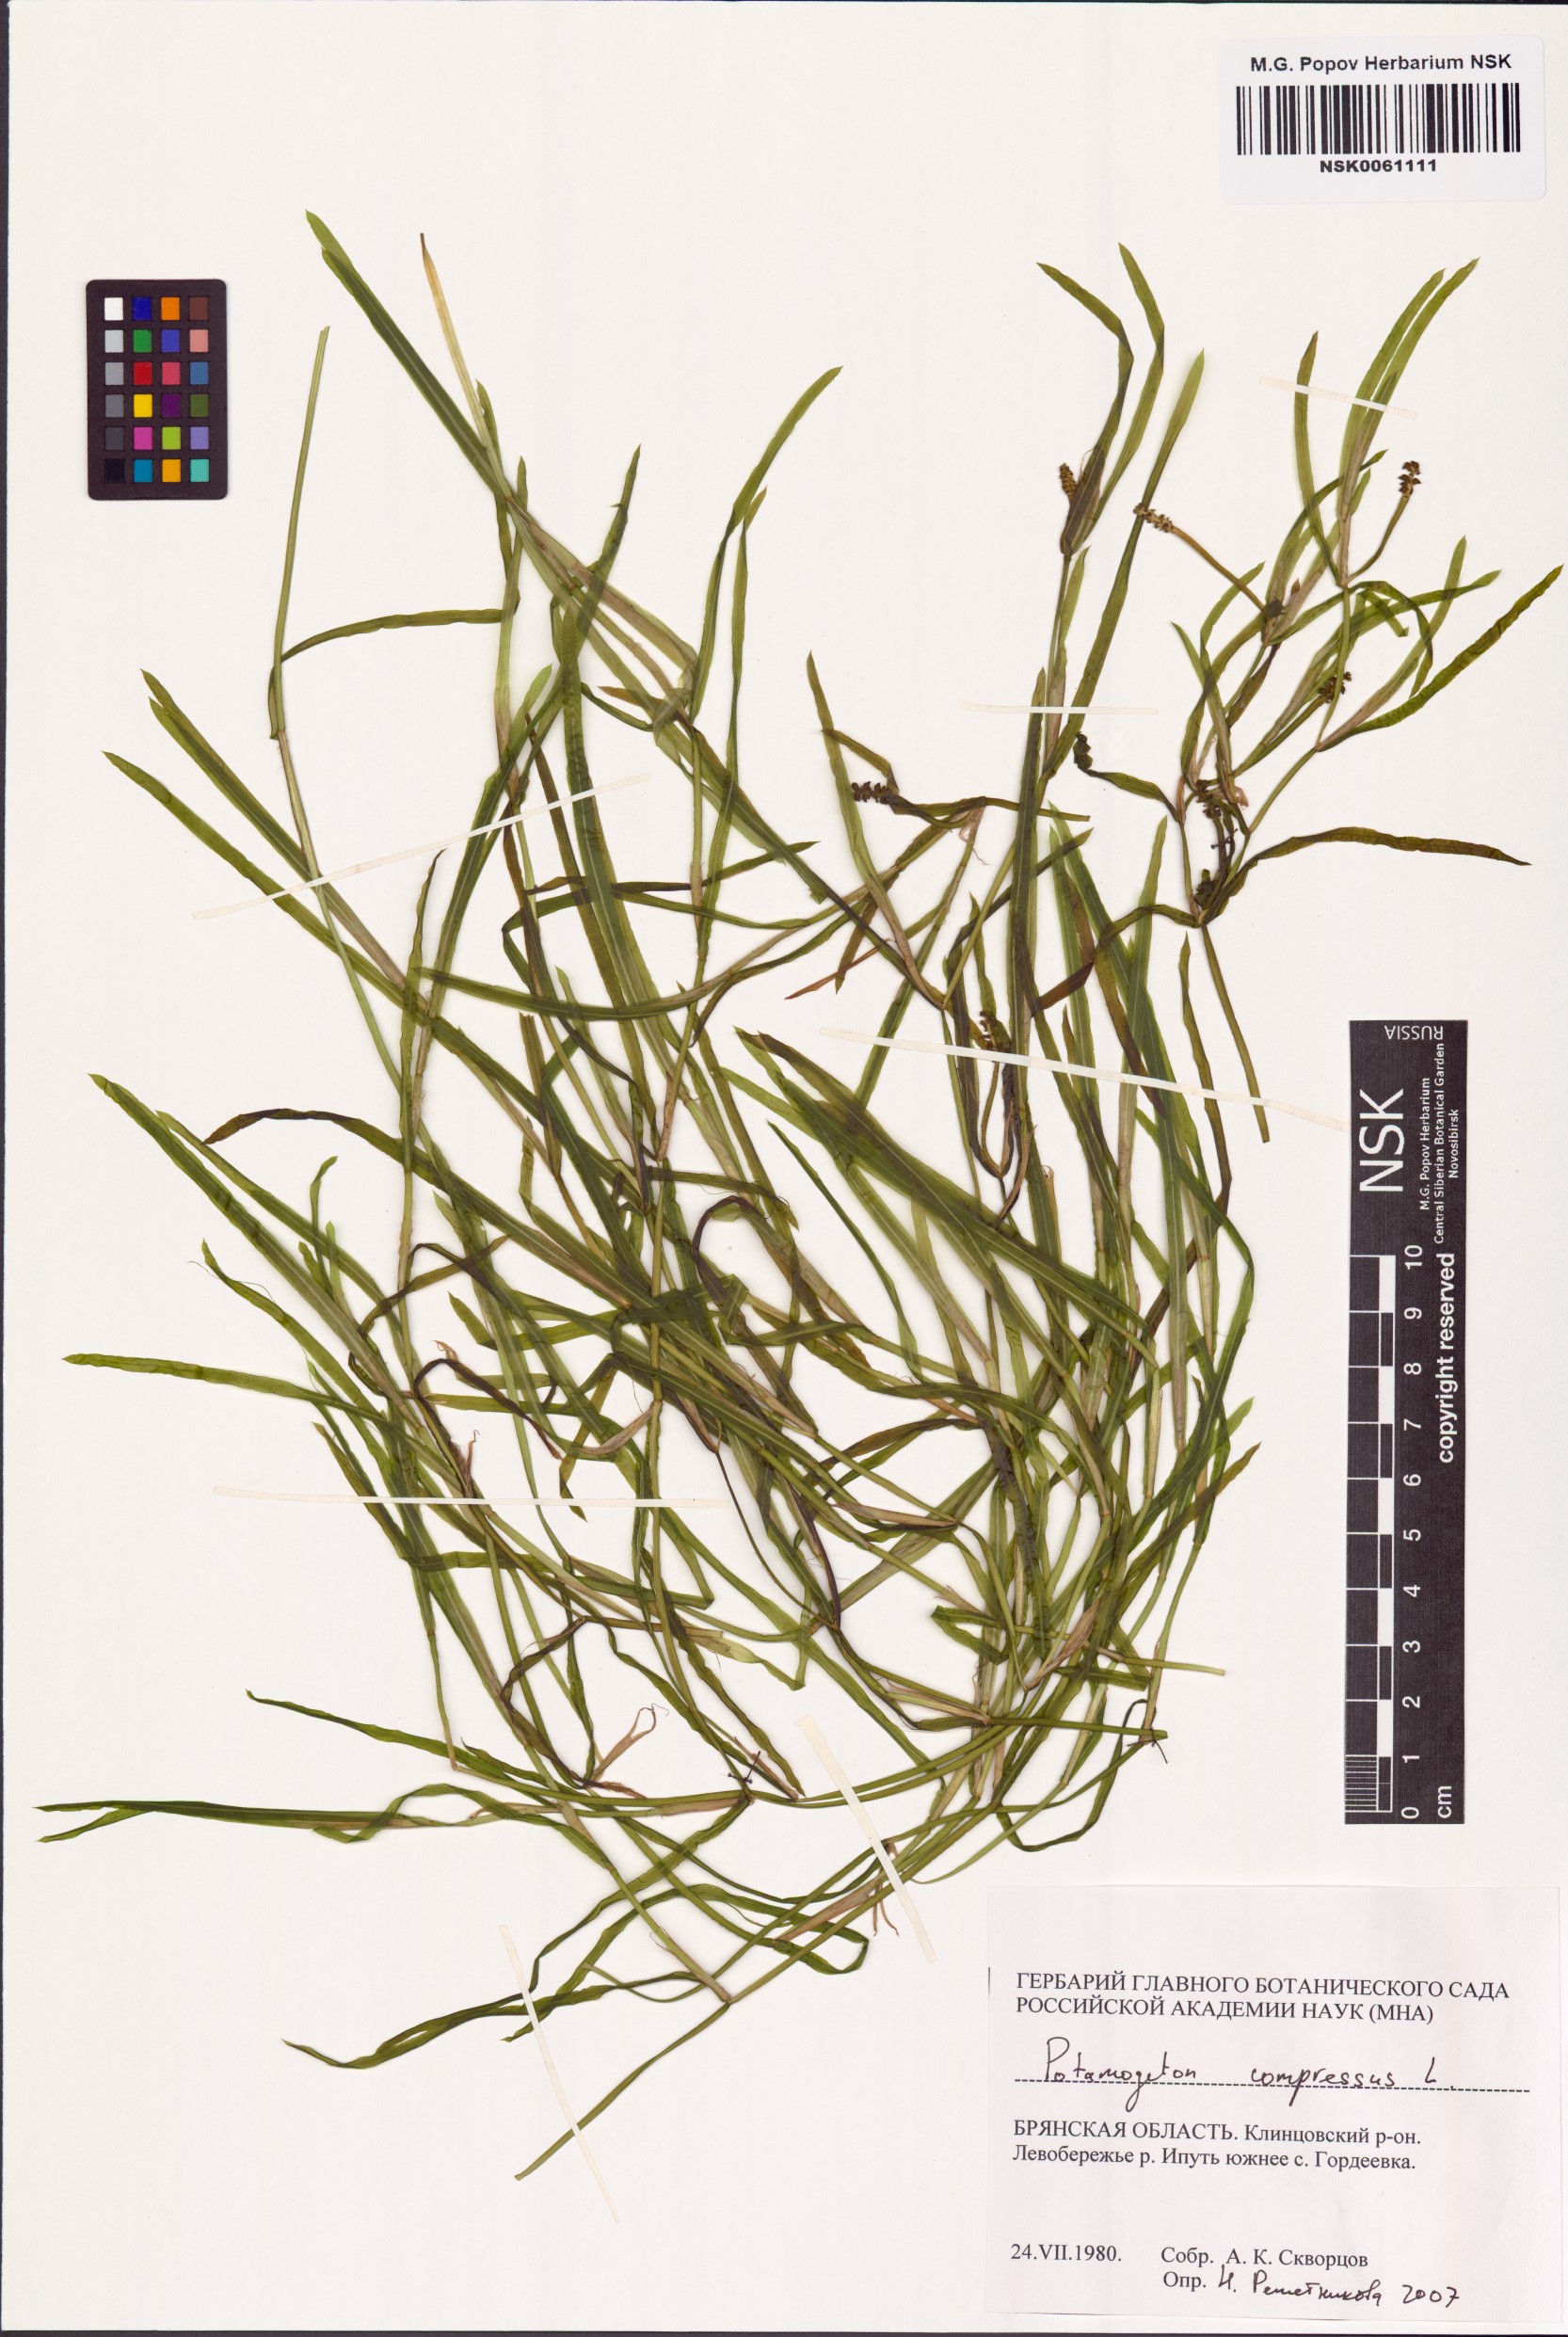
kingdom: Plantae
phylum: Tracheophyta
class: Liliopsida
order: Alismatales
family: Potamogetonaceae
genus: Potamogeton
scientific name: Potamogeton compressus
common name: Grass-wrack pondweed
